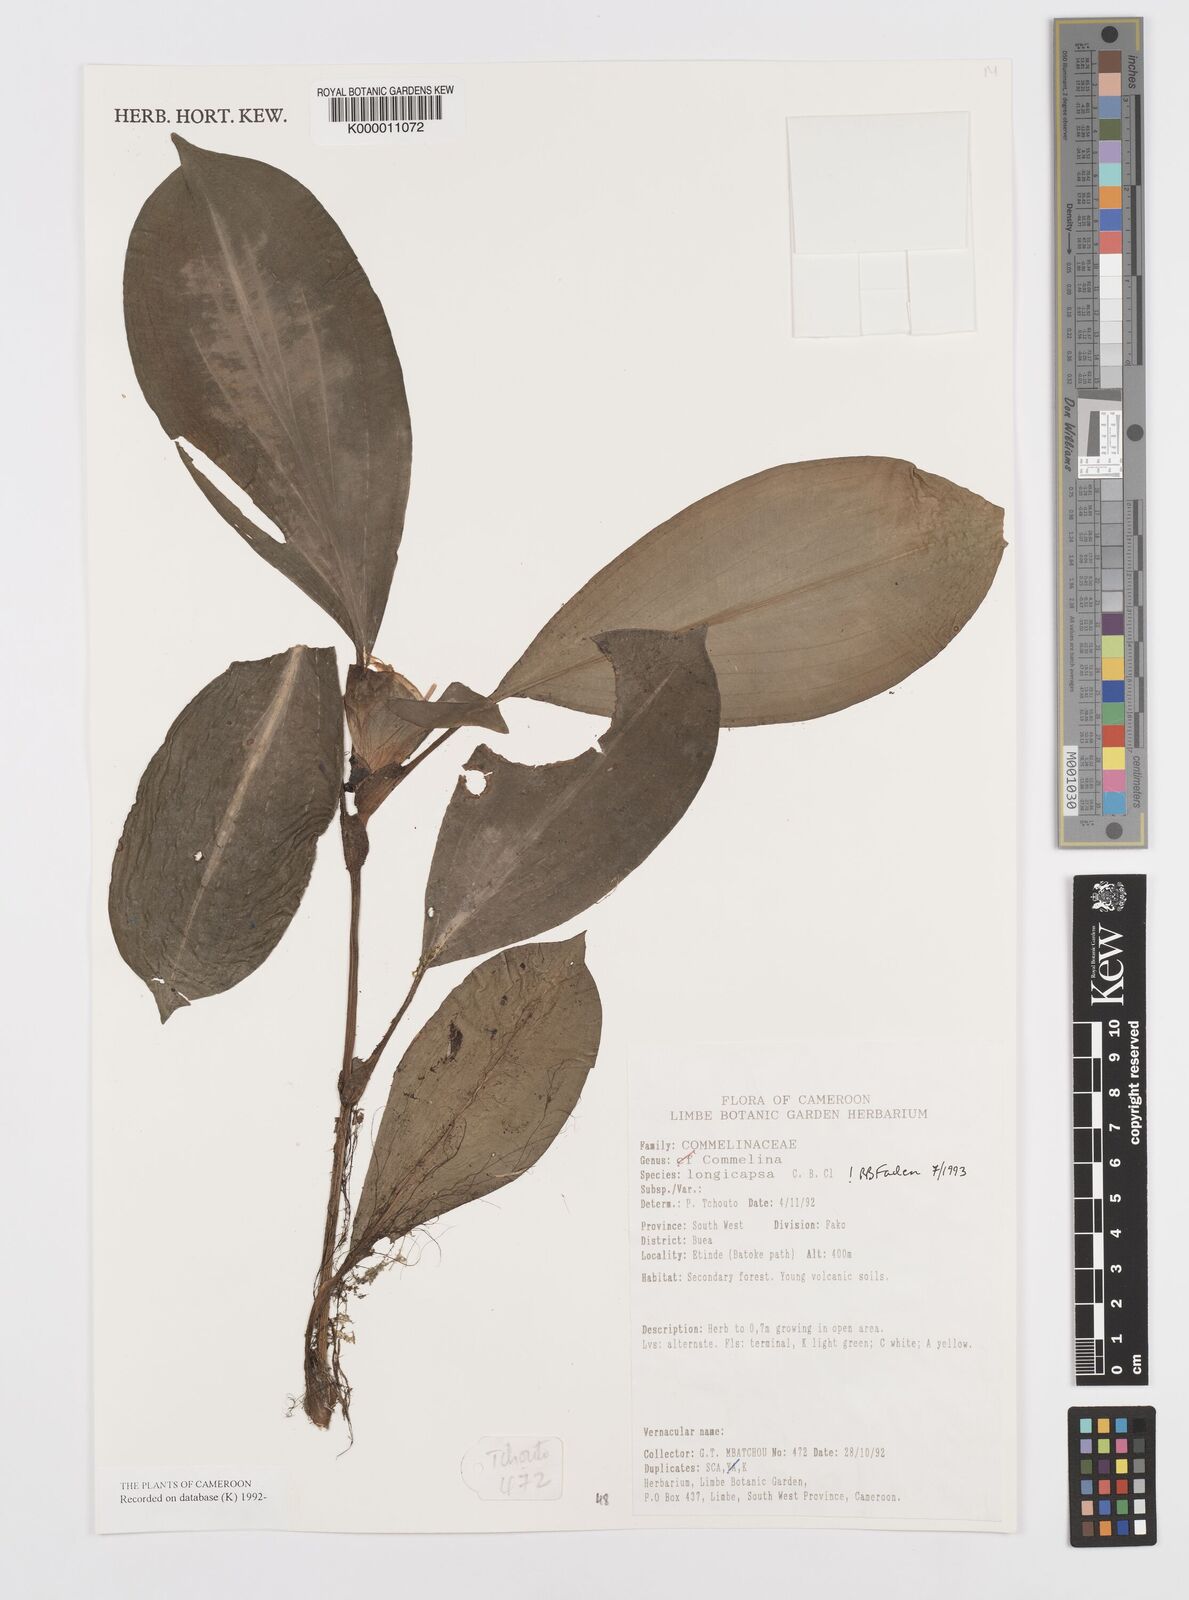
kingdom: Plantae
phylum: Tracheophyta
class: Liliopsida
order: Commelinales
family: Commelinaceae
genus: Commelina
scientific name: Commelina longicapsa
